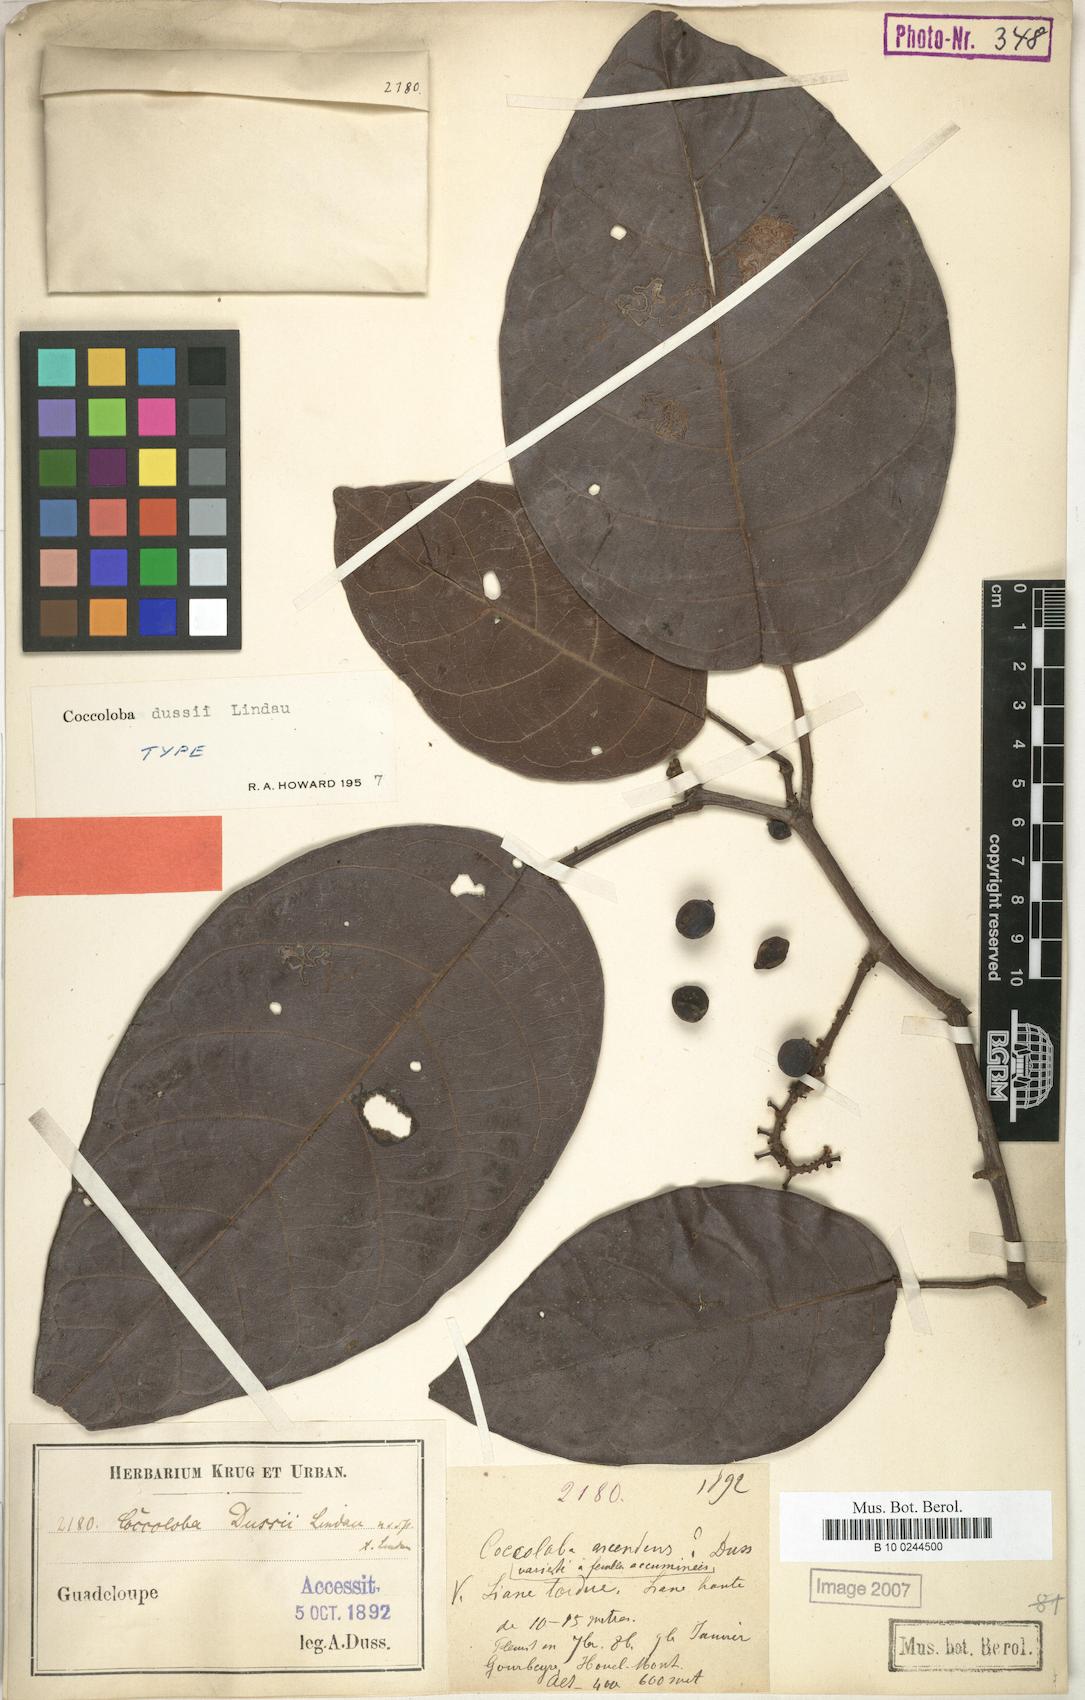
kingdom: Plantae
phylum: Tracheophyta
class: Magnoliopsida
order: Caryophyllales
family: Polygonaceae
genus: Coccoloba
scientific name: Coccoloba dussii
